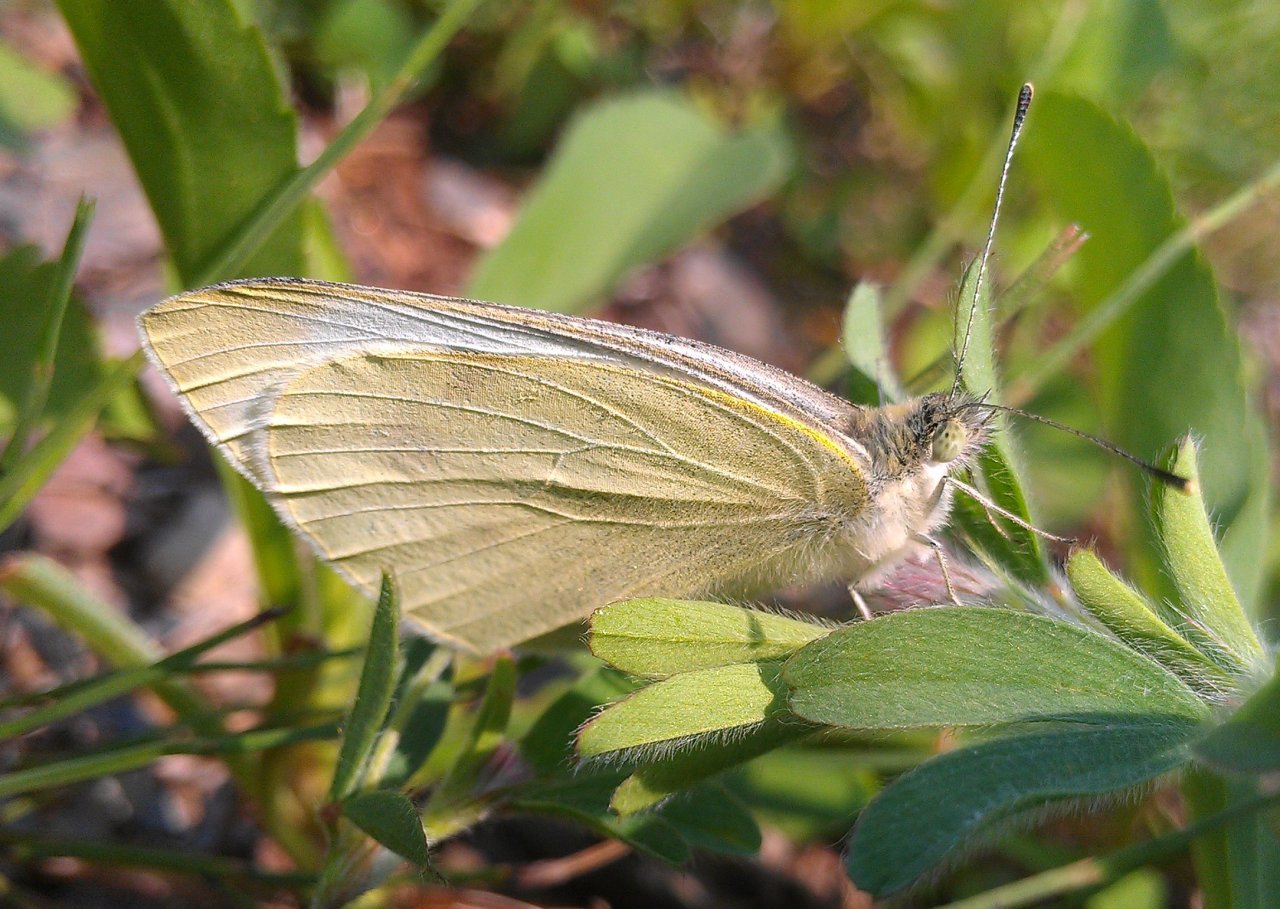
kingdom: Animalia
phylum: Arthropoda
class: Insecta
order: Lepidoptera
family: Pieridae
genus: Pieris
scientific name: Pieris rapae
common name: Cabbage White
